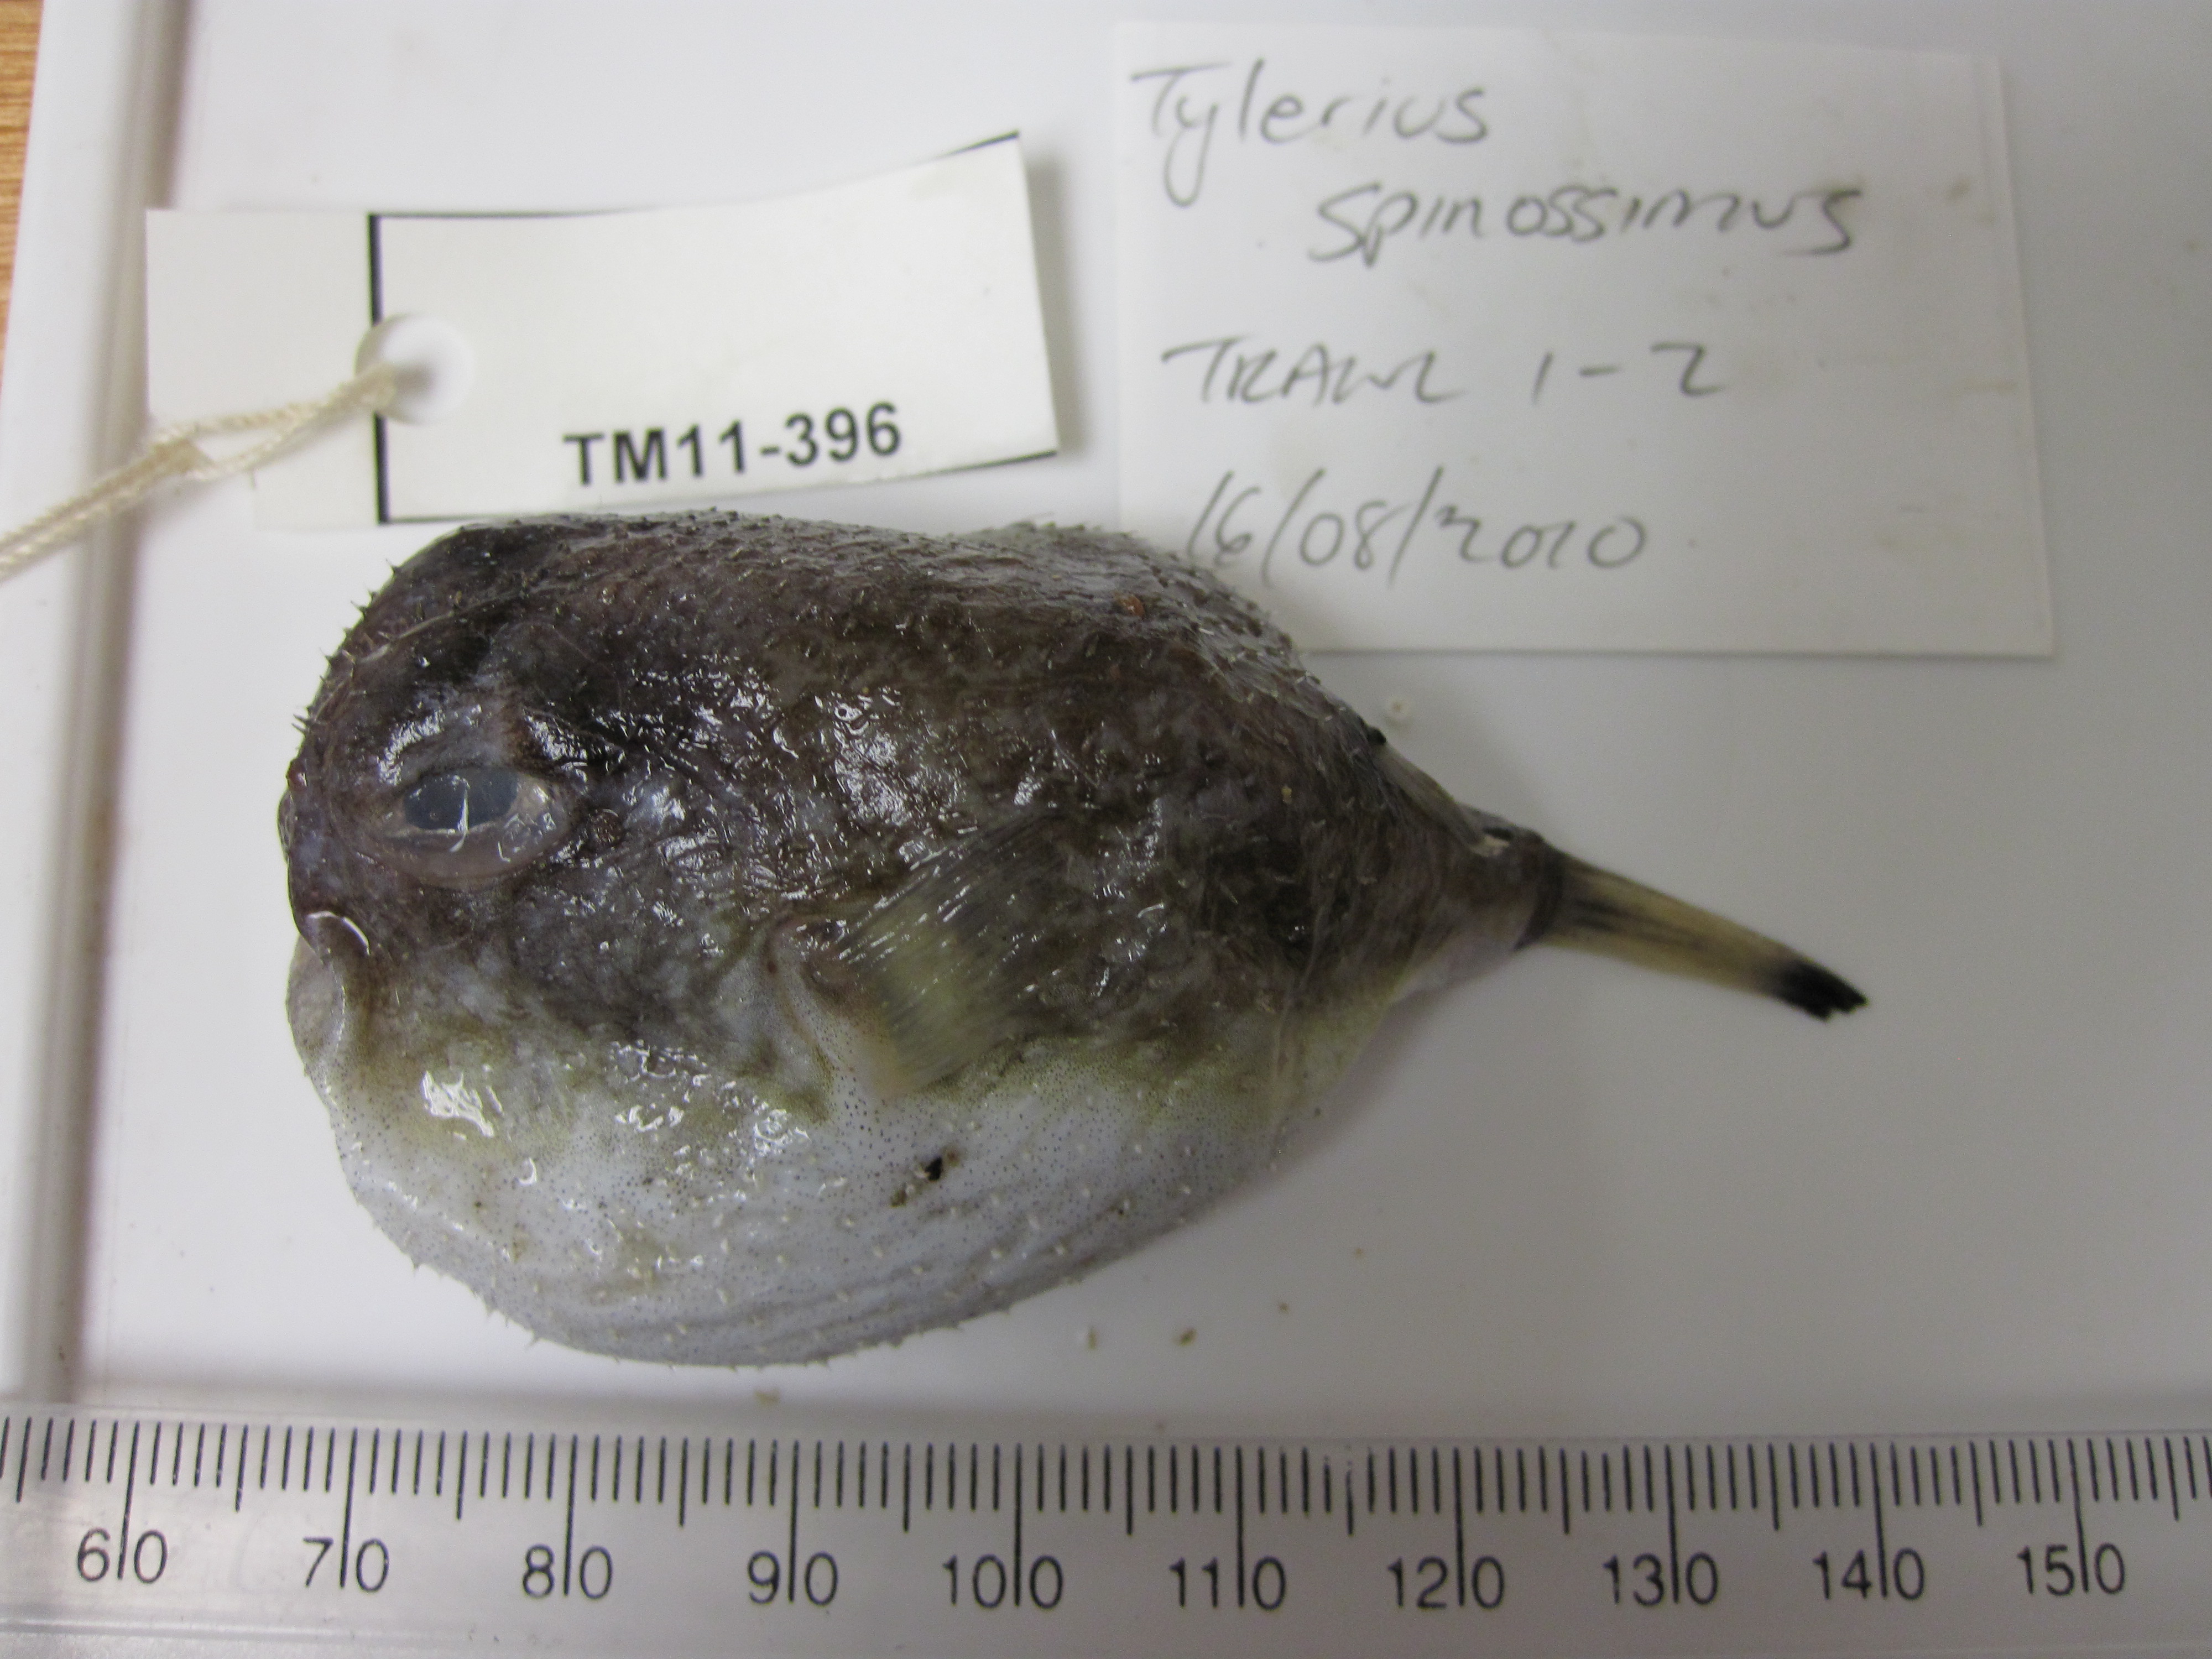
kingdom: Animalia
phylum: Chordata
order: Tetraodontiformes
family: Tetraodontidae
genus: Tylerius
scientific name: Tylerius spinosissimus
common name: Spiny blaasop
